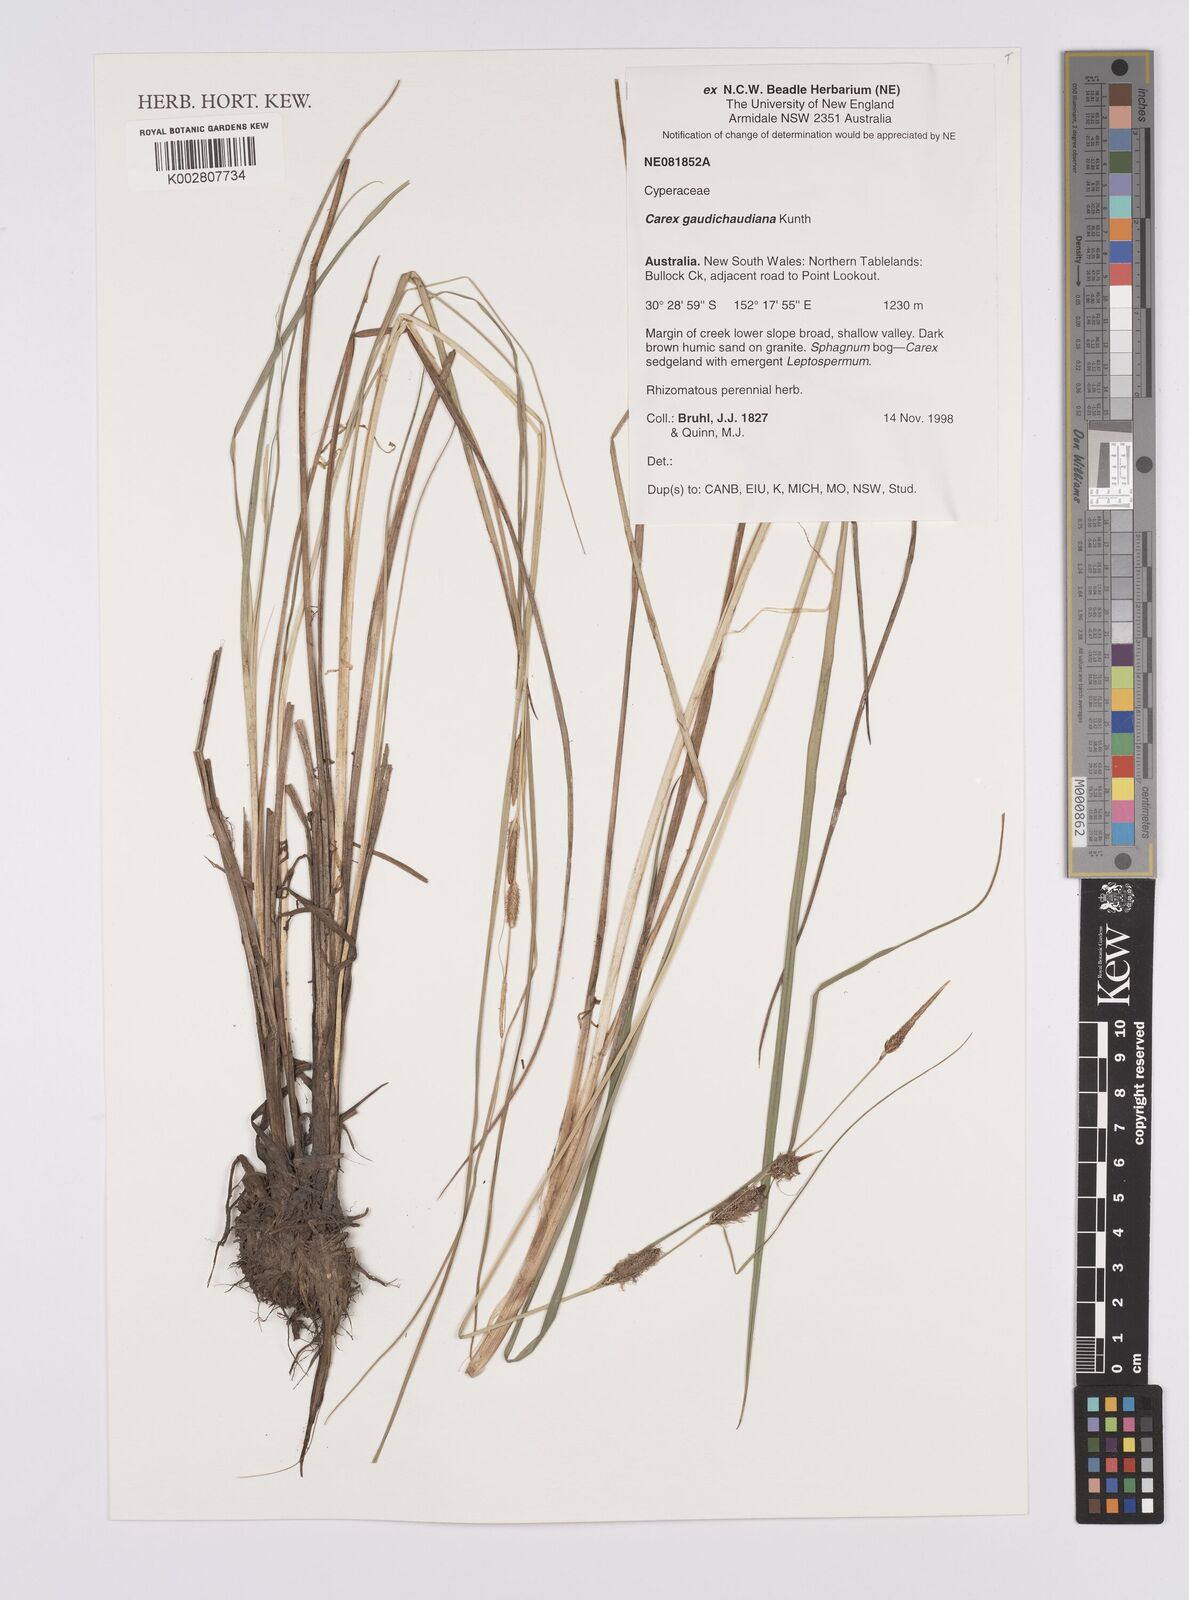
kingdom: Plantae
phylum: Tracheophyta
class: Liliopsida
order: Poales
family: Cyperaceae
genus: Carex
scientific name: Carex gaudichaudiana
